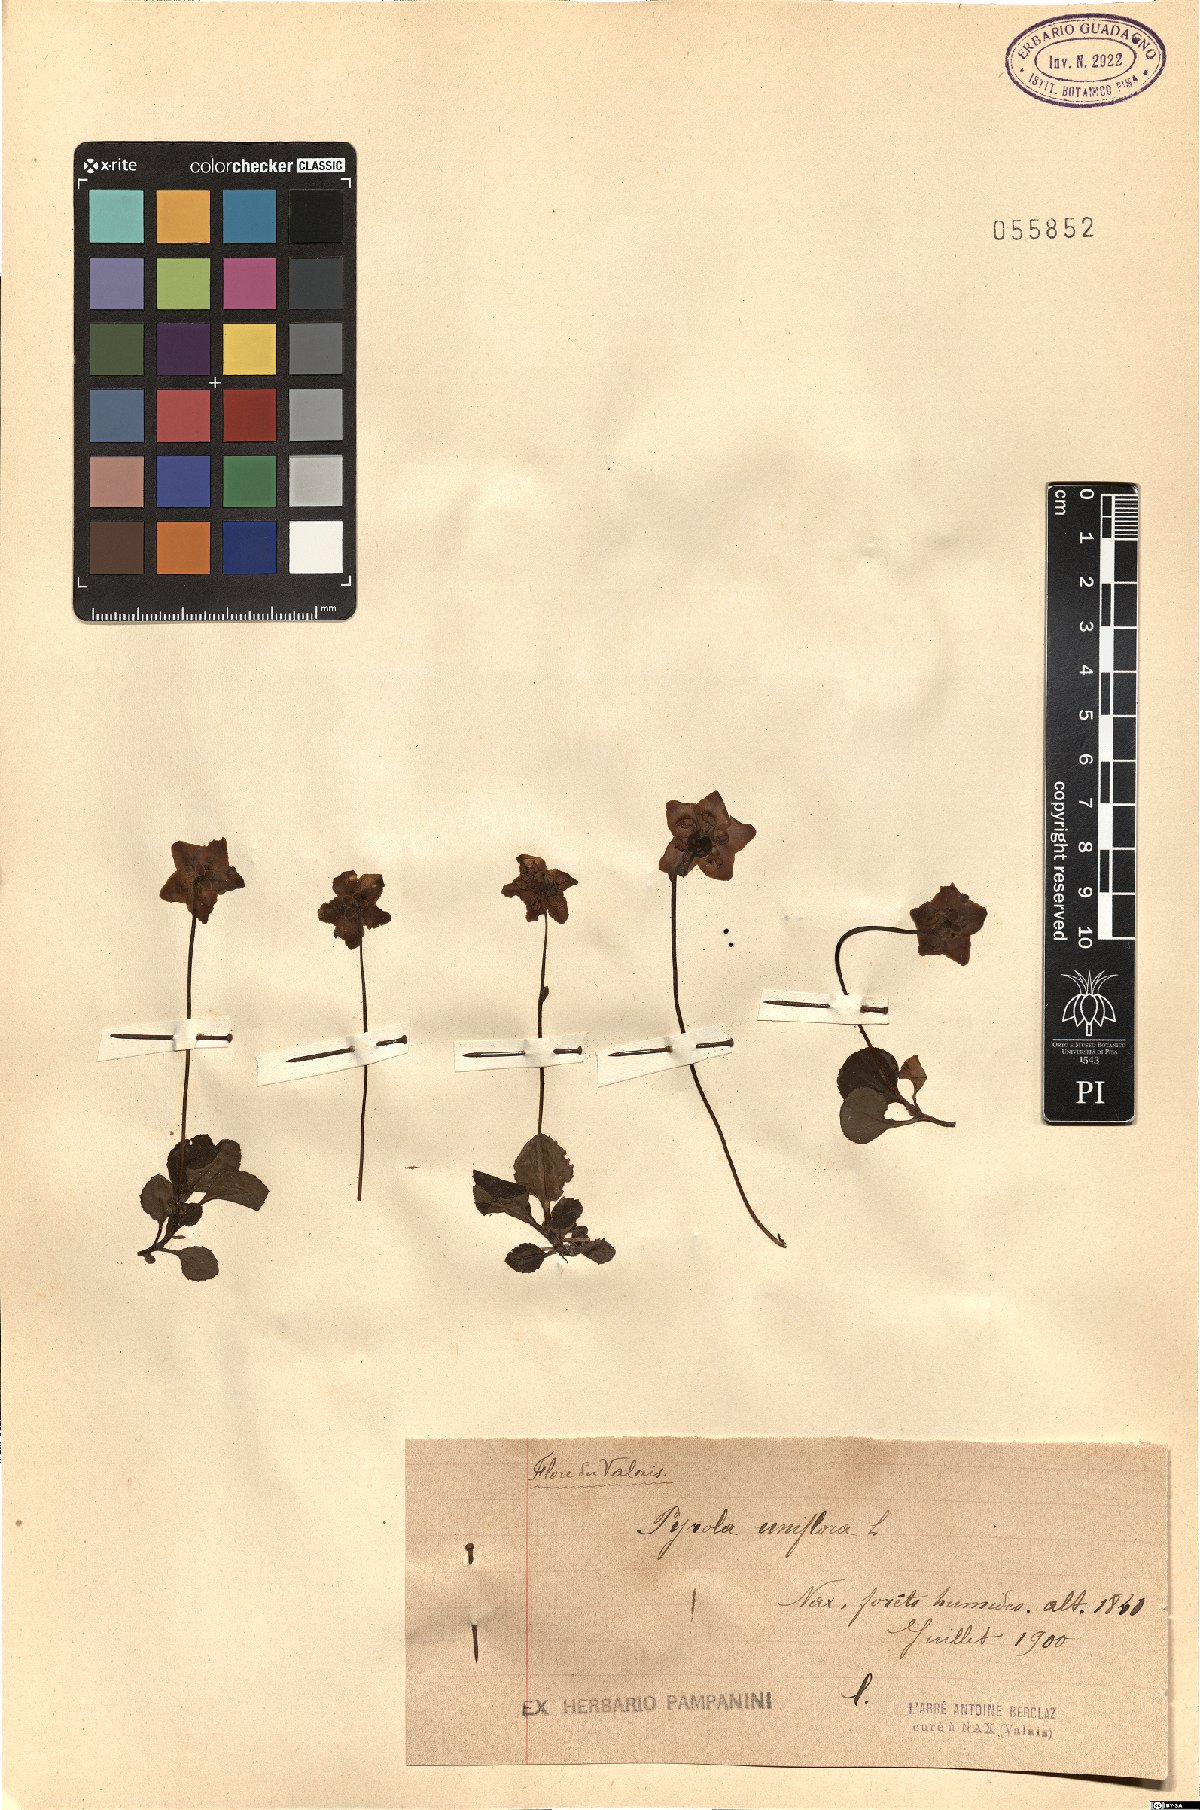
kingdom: Plantae
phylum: Tracheophyta
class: Magnoliopsida
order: Ericales
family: Ericaceae
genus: Moneses
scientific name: Moneses uniflora
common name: One-flowered wintergreen
